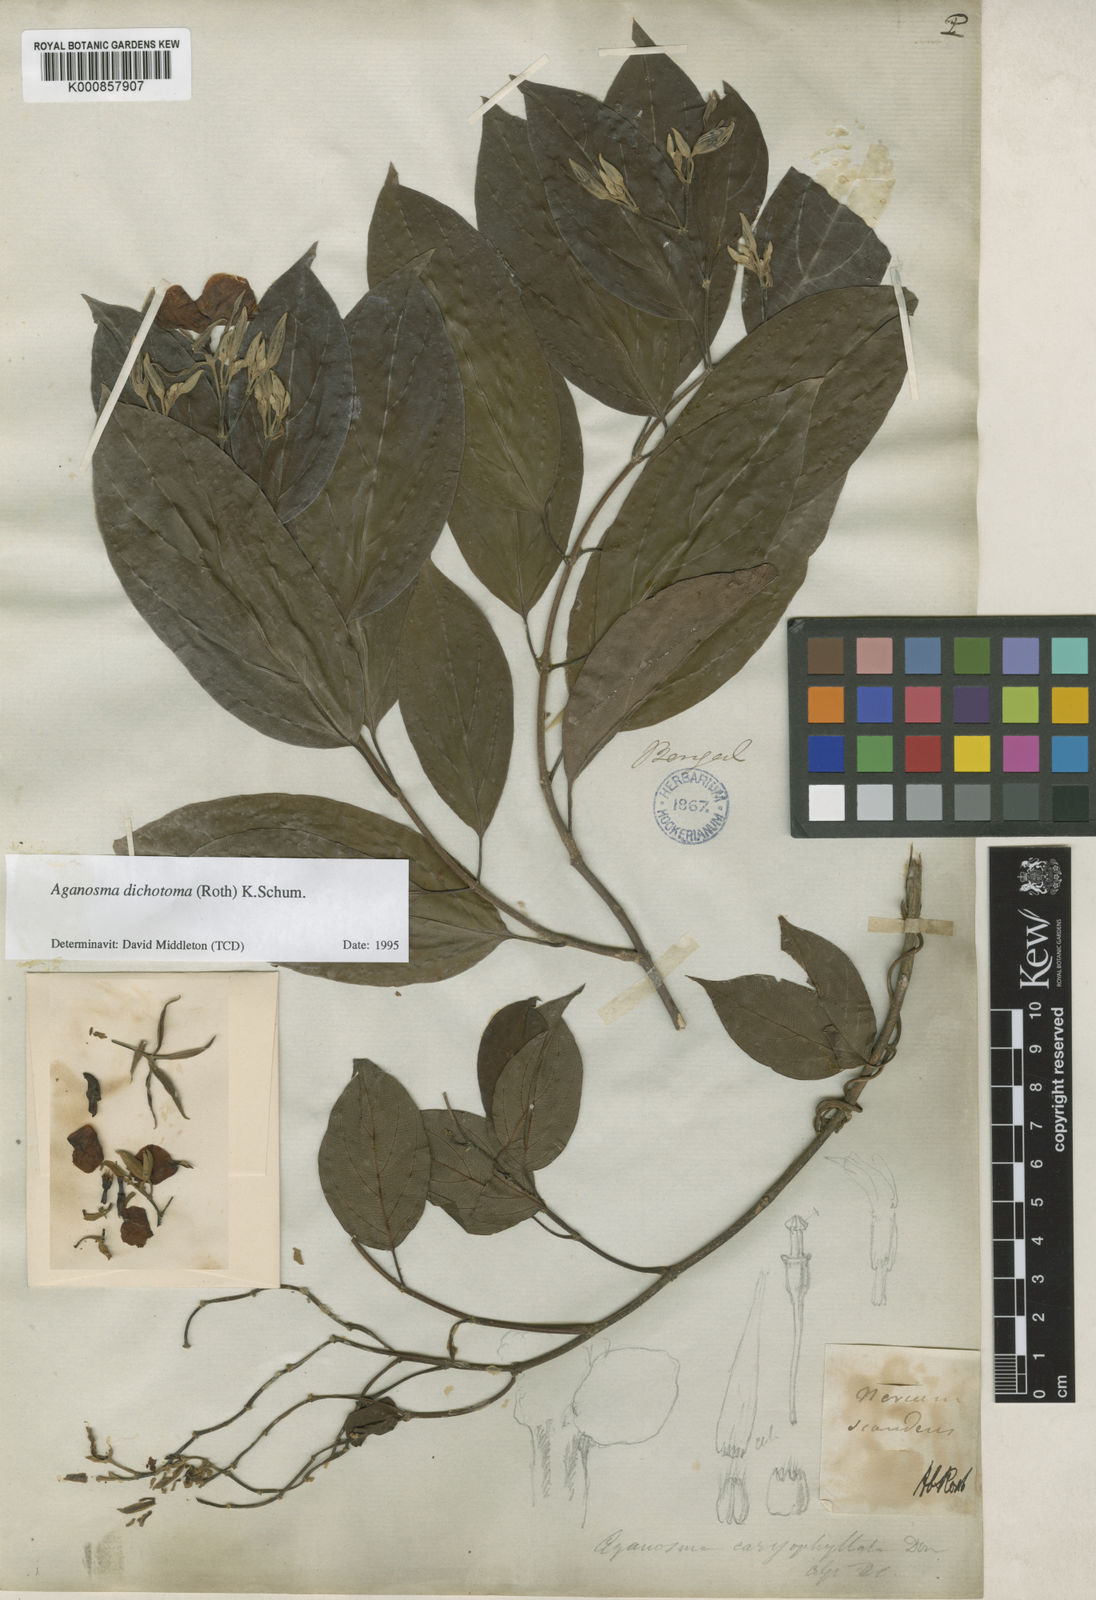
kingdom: Plantae
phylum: Tracheophyta
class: Magnoliopsida
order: Gentianales
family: Apocynaceae
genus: Aganosma
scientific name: Aganosma heynei
